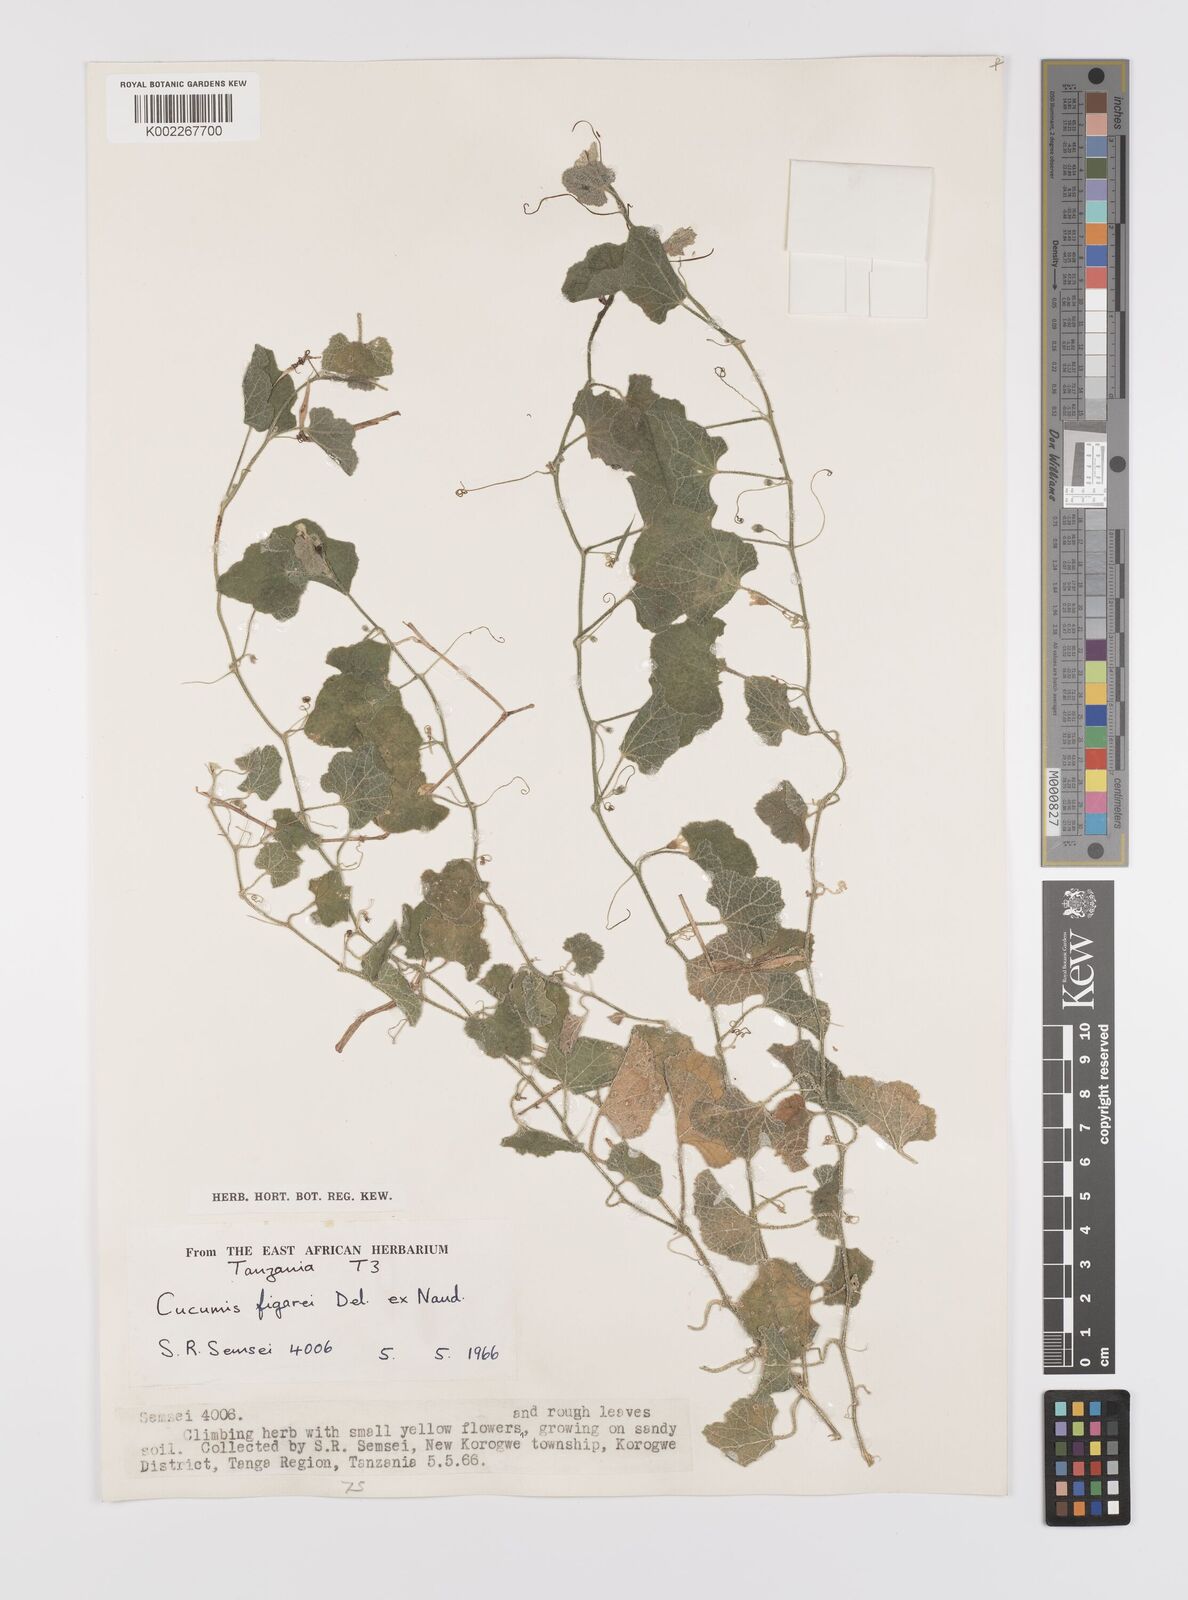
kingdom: Plantae
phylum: Tracheophyta
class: Magnoliopsida
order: Cucurbitales
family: Cucurbitaceae
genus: Cucumis
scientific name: Cucumis
